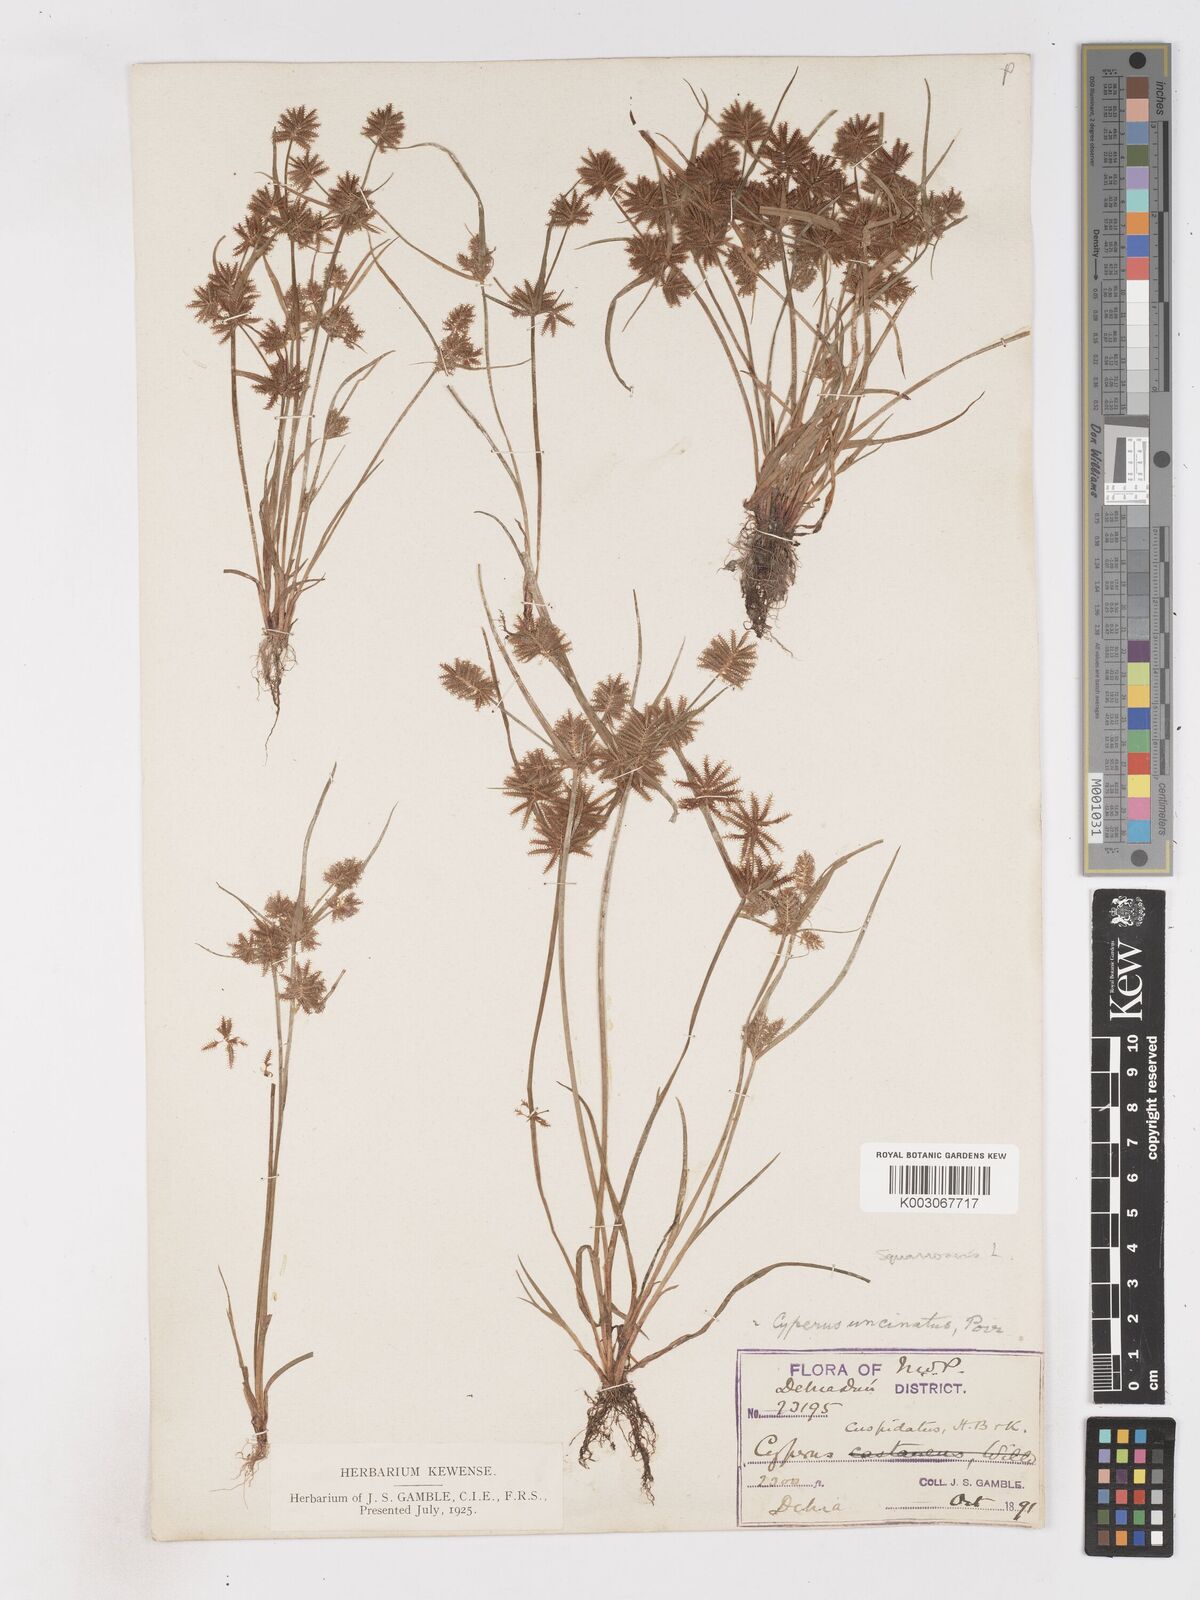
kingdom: Plantae
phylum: Tracheophyta
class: Liliopsida
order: Poales
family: Cyperaceae
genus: Cyperus
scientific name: Cyperus squarrosus
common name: Awned cyperus
